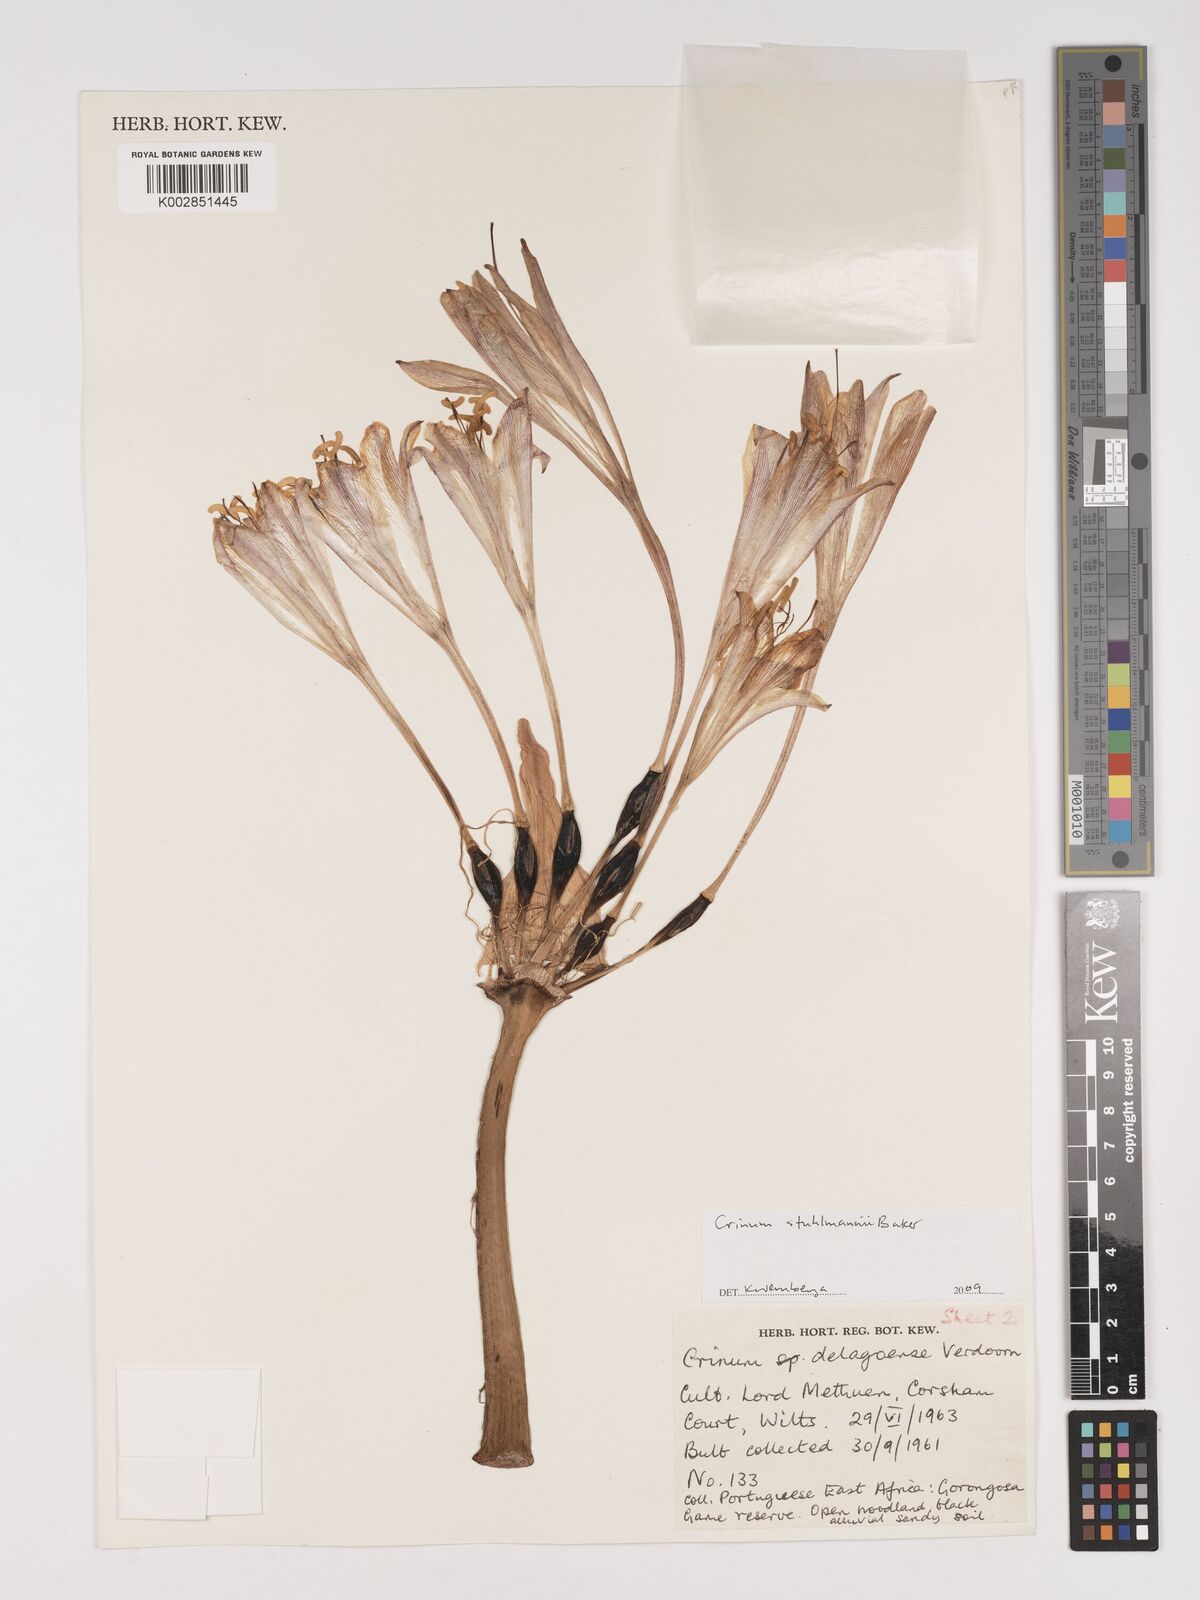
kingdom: Plantae
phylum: Tracheophyta
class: Liliopsida
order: Asparagales
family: Amaryllidaceae
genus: Crinum
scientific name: Crinum stuhlmannii
